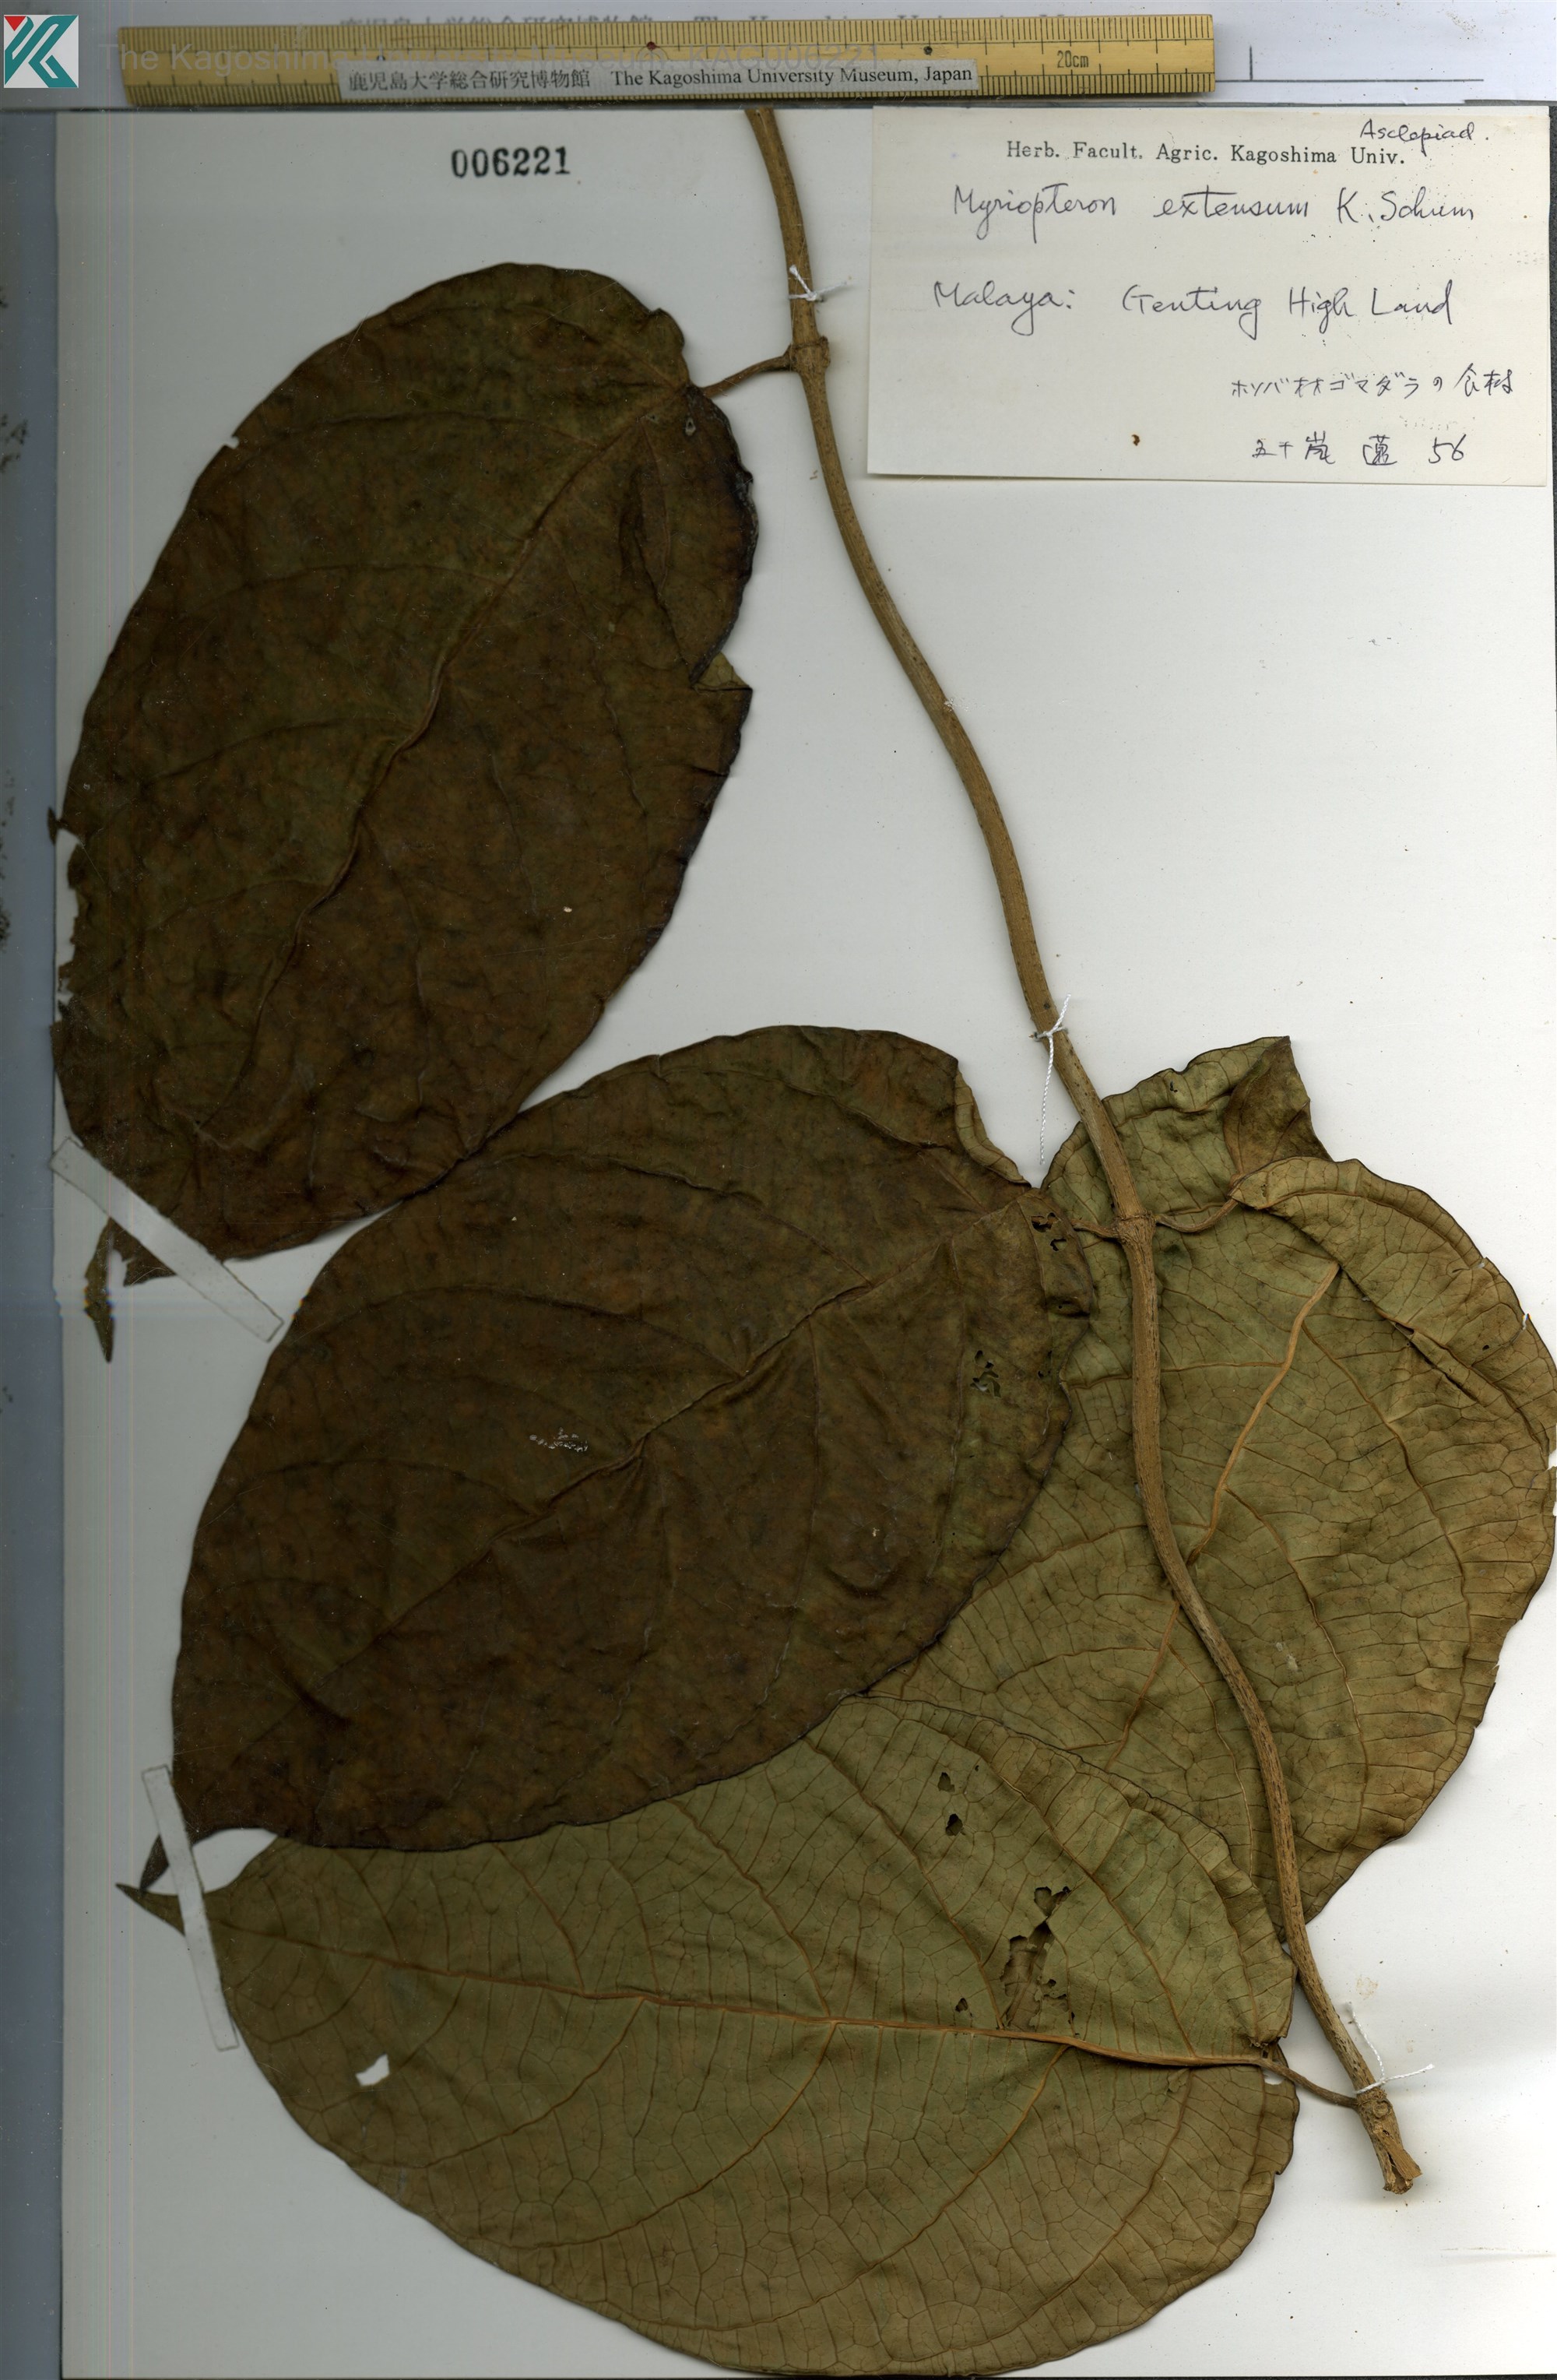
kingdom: Plantae
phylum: Tracheophyta
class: Magnoliopsida
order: Gentianales
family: Apocynaceae
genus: Myriopteron
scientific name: Myriopteron extensum
